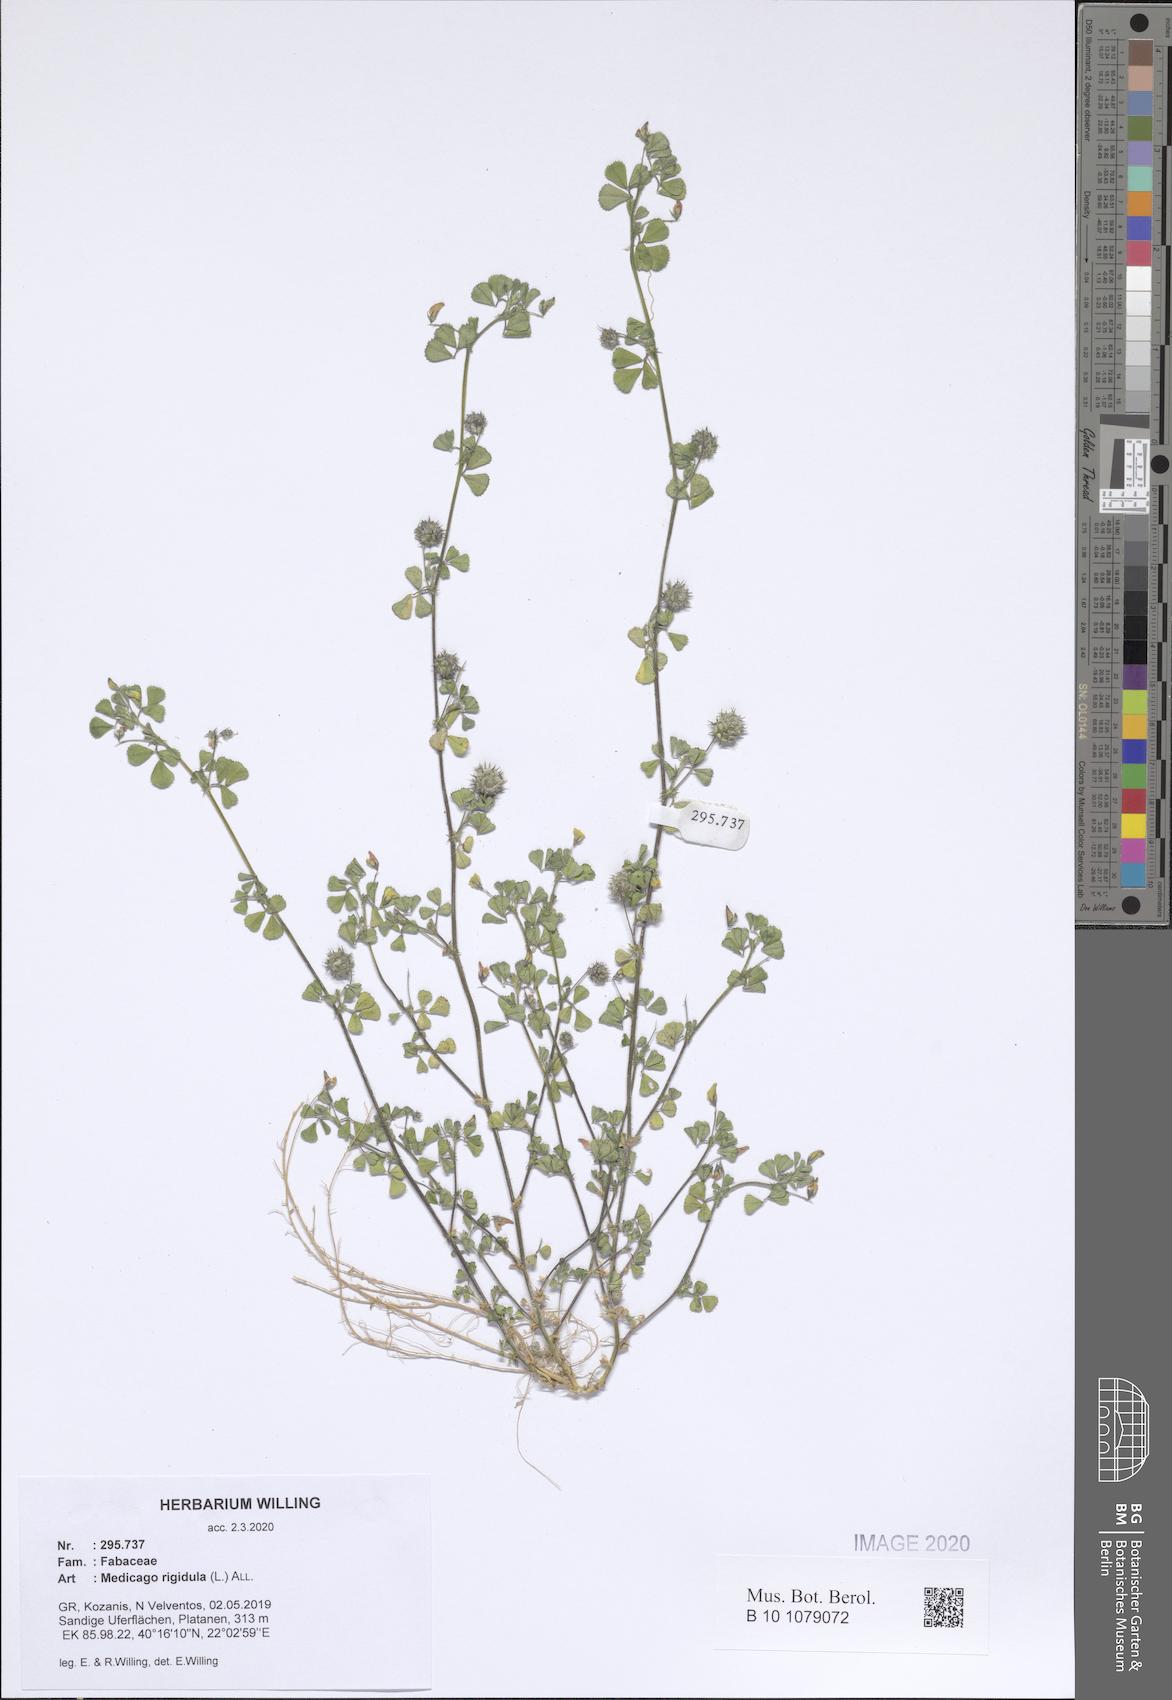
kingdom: Plantae
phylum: Tracheophyta
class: Magnoliopsida
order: Fabales
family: Fabaceae
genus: Medicago
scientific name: Medicago rigidula
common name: Tifton medic
